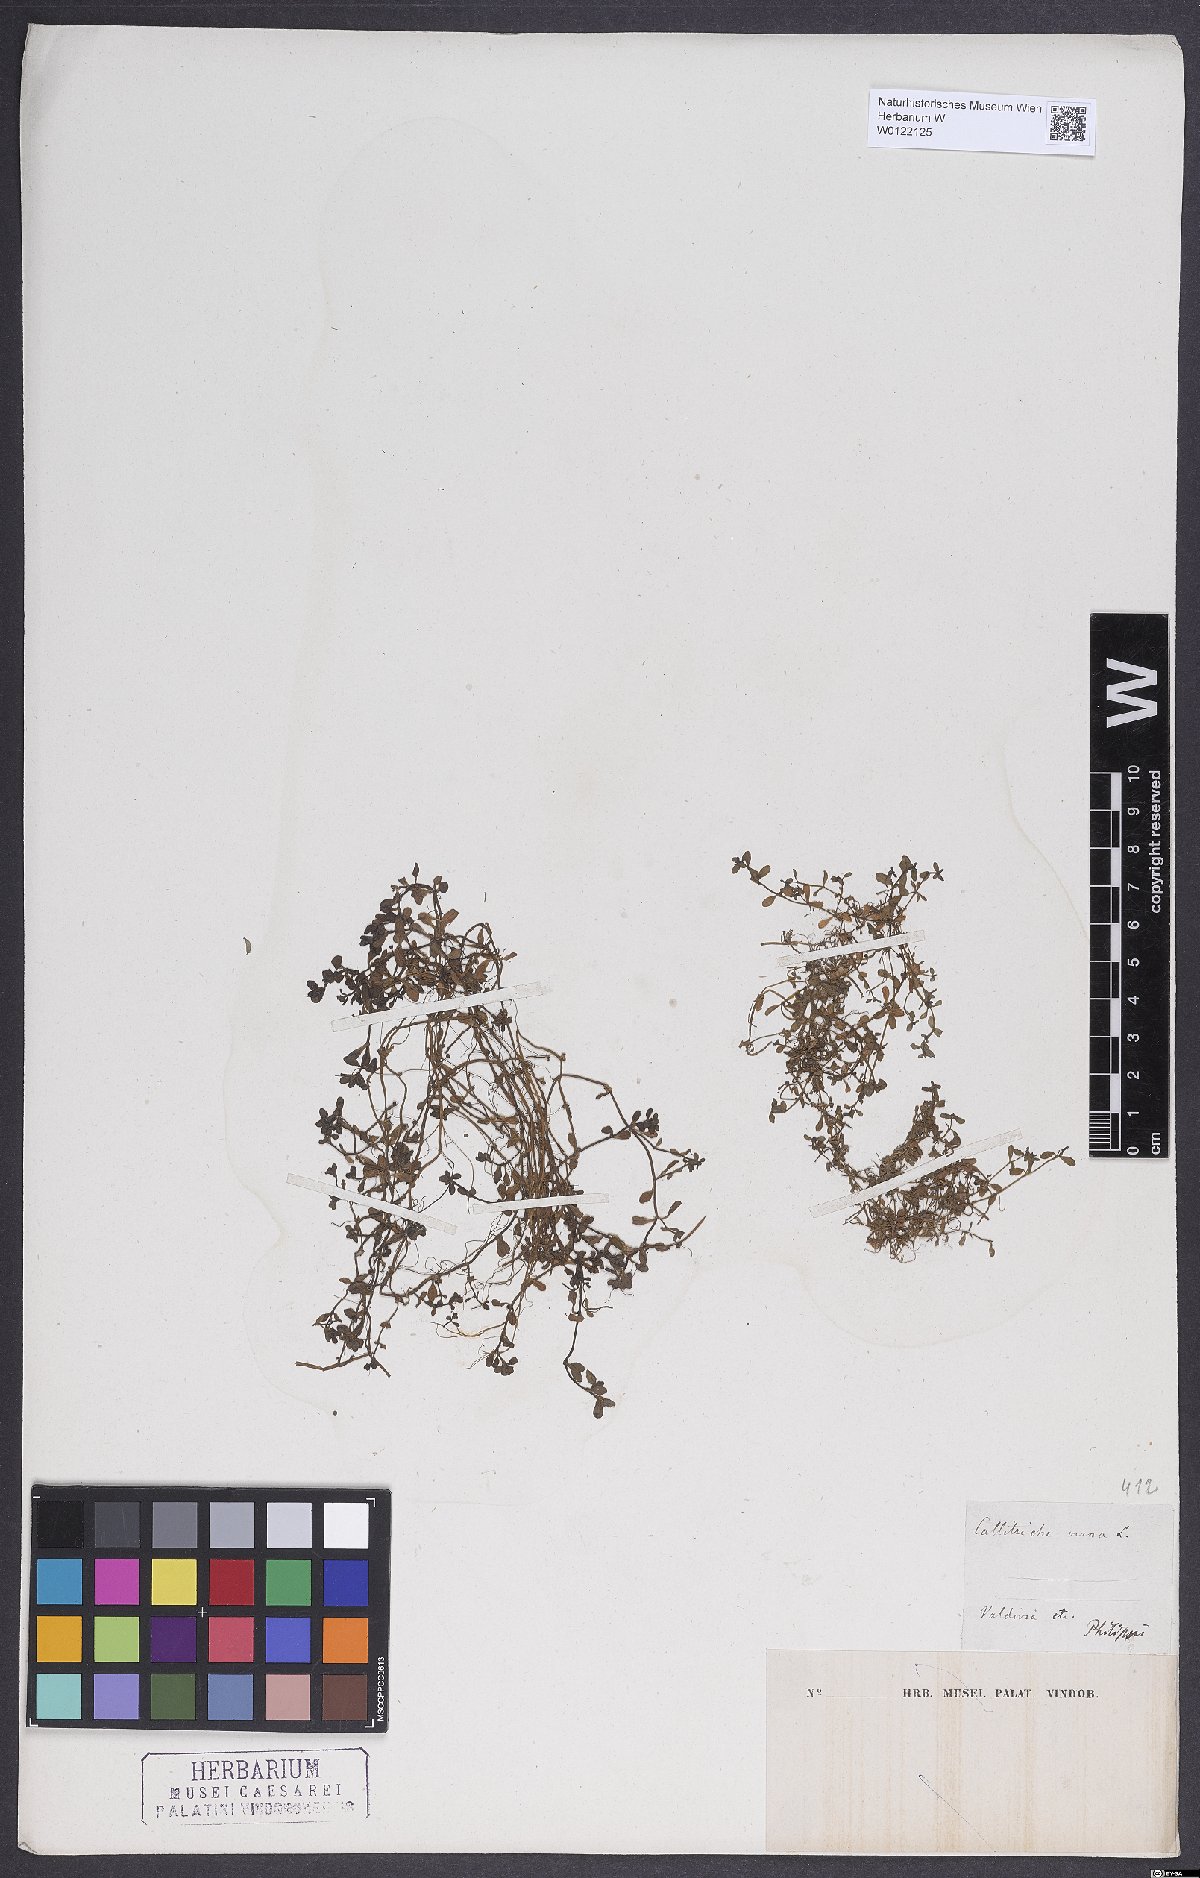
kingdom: Plantae
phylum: Tracheophyta
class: Magnoliopsida
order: Lamiales
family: Plantaginaceae
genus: Callitriche
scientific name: Callitriche obtusangula
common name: Blunt-fruited water-starwort
